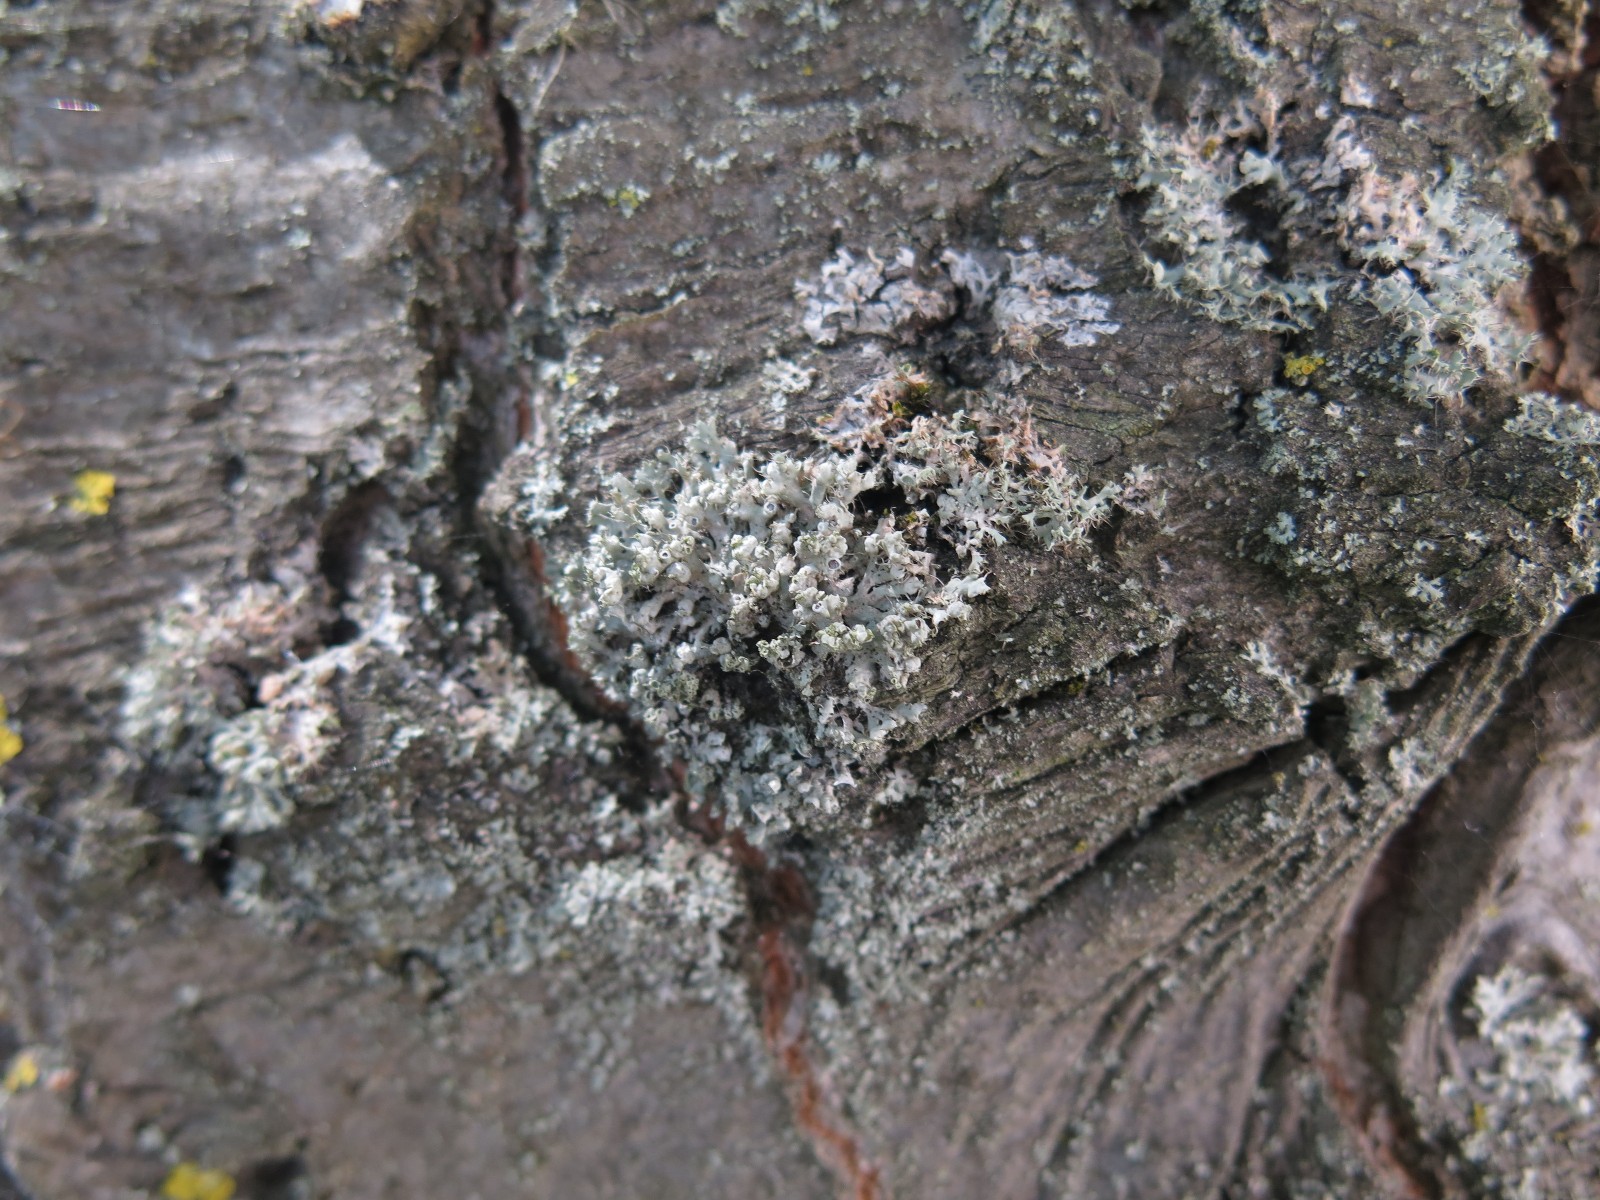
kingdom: Fungi
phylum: Ascomycota
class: Lecanoromycetes
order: Caliciales
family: Physciaceae
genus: Physcia
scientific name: Physcia adscendens
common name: hætte-rosetlav
